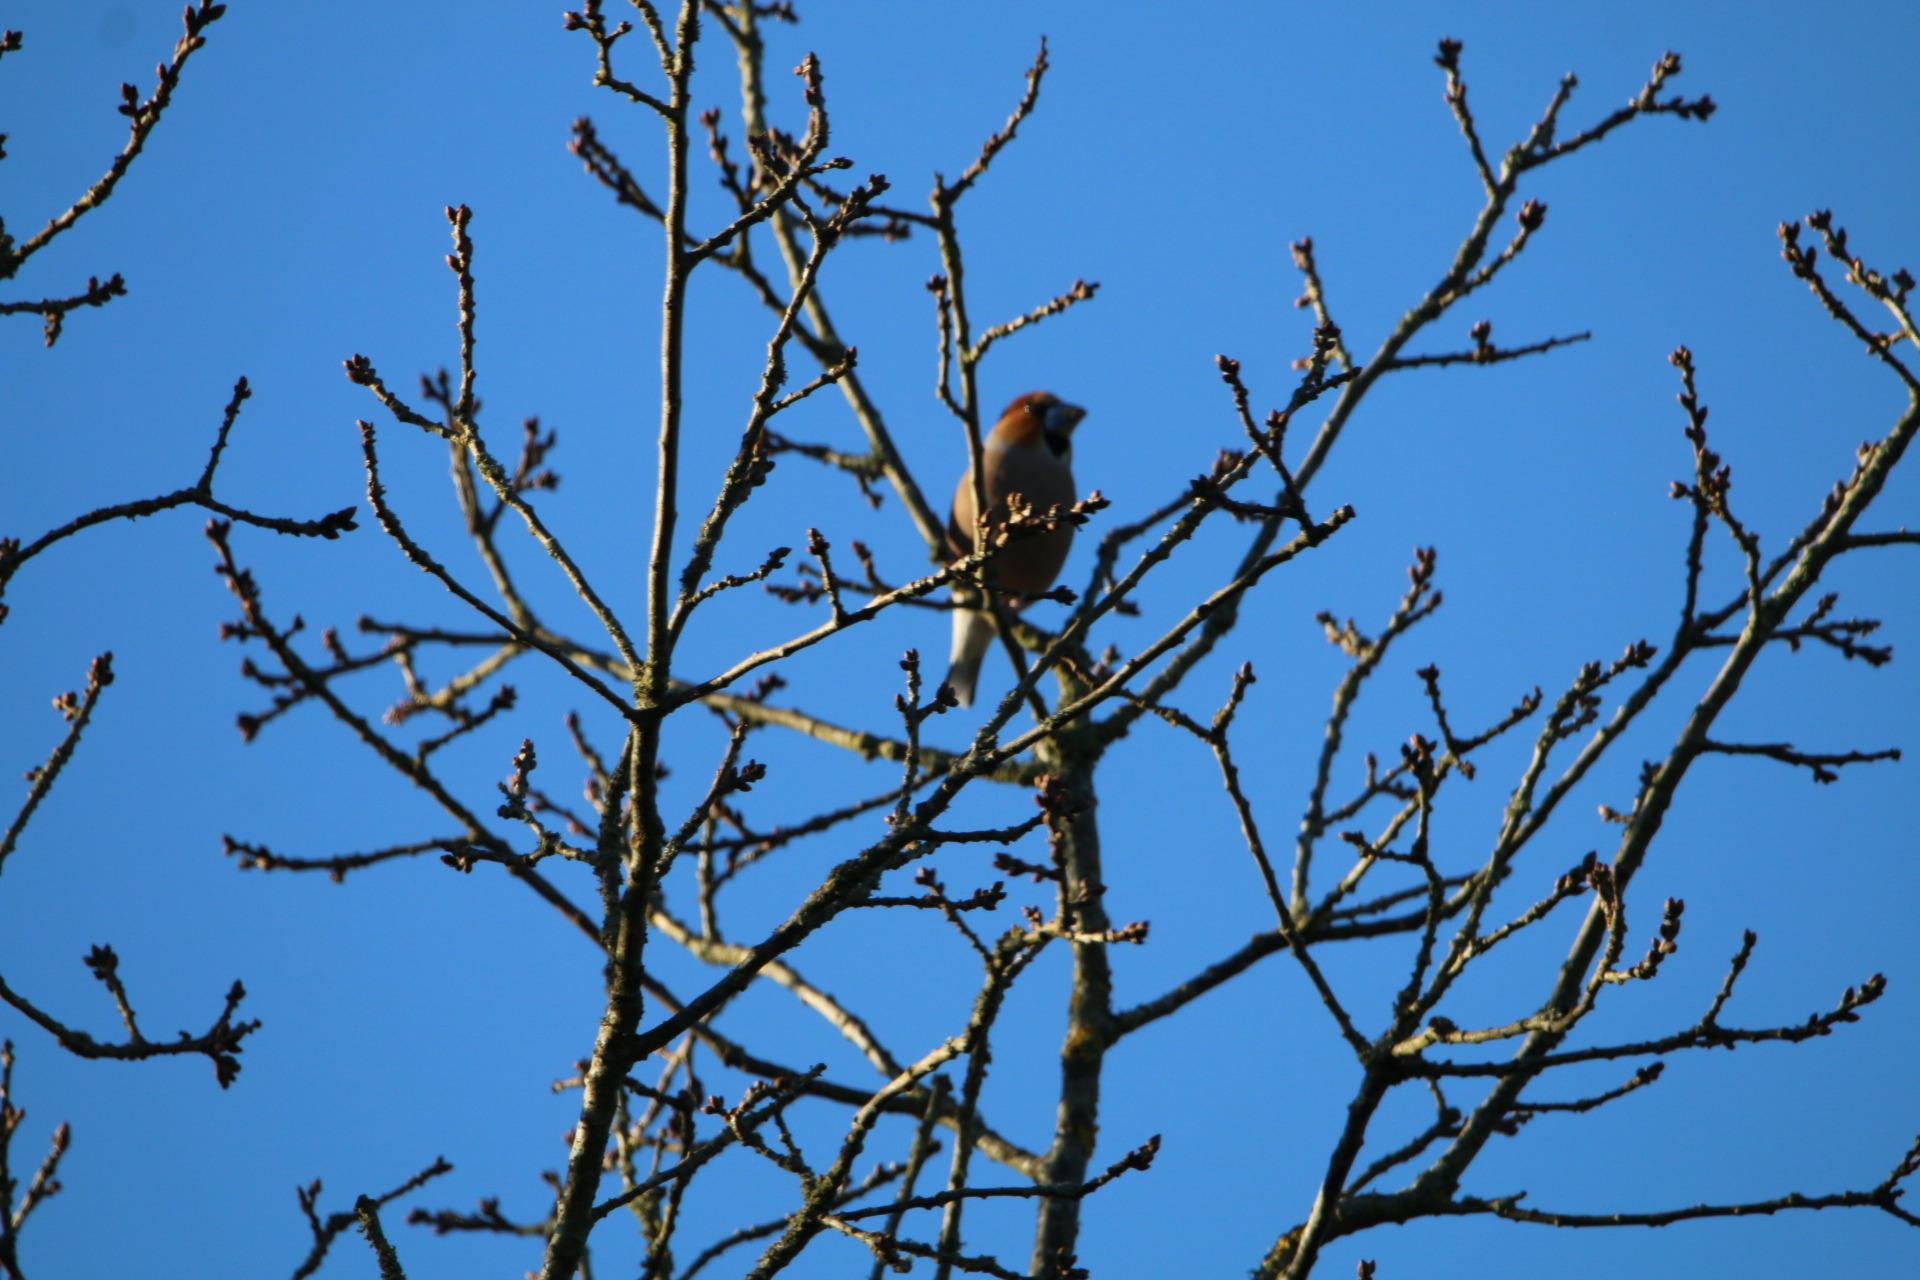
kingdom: Animalia
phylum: Chordata
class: Aves
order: Passeriformes
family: Fringillidae
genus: Coccothraustes
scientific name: Coccothraustes coccothraustes
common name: Kernebider
